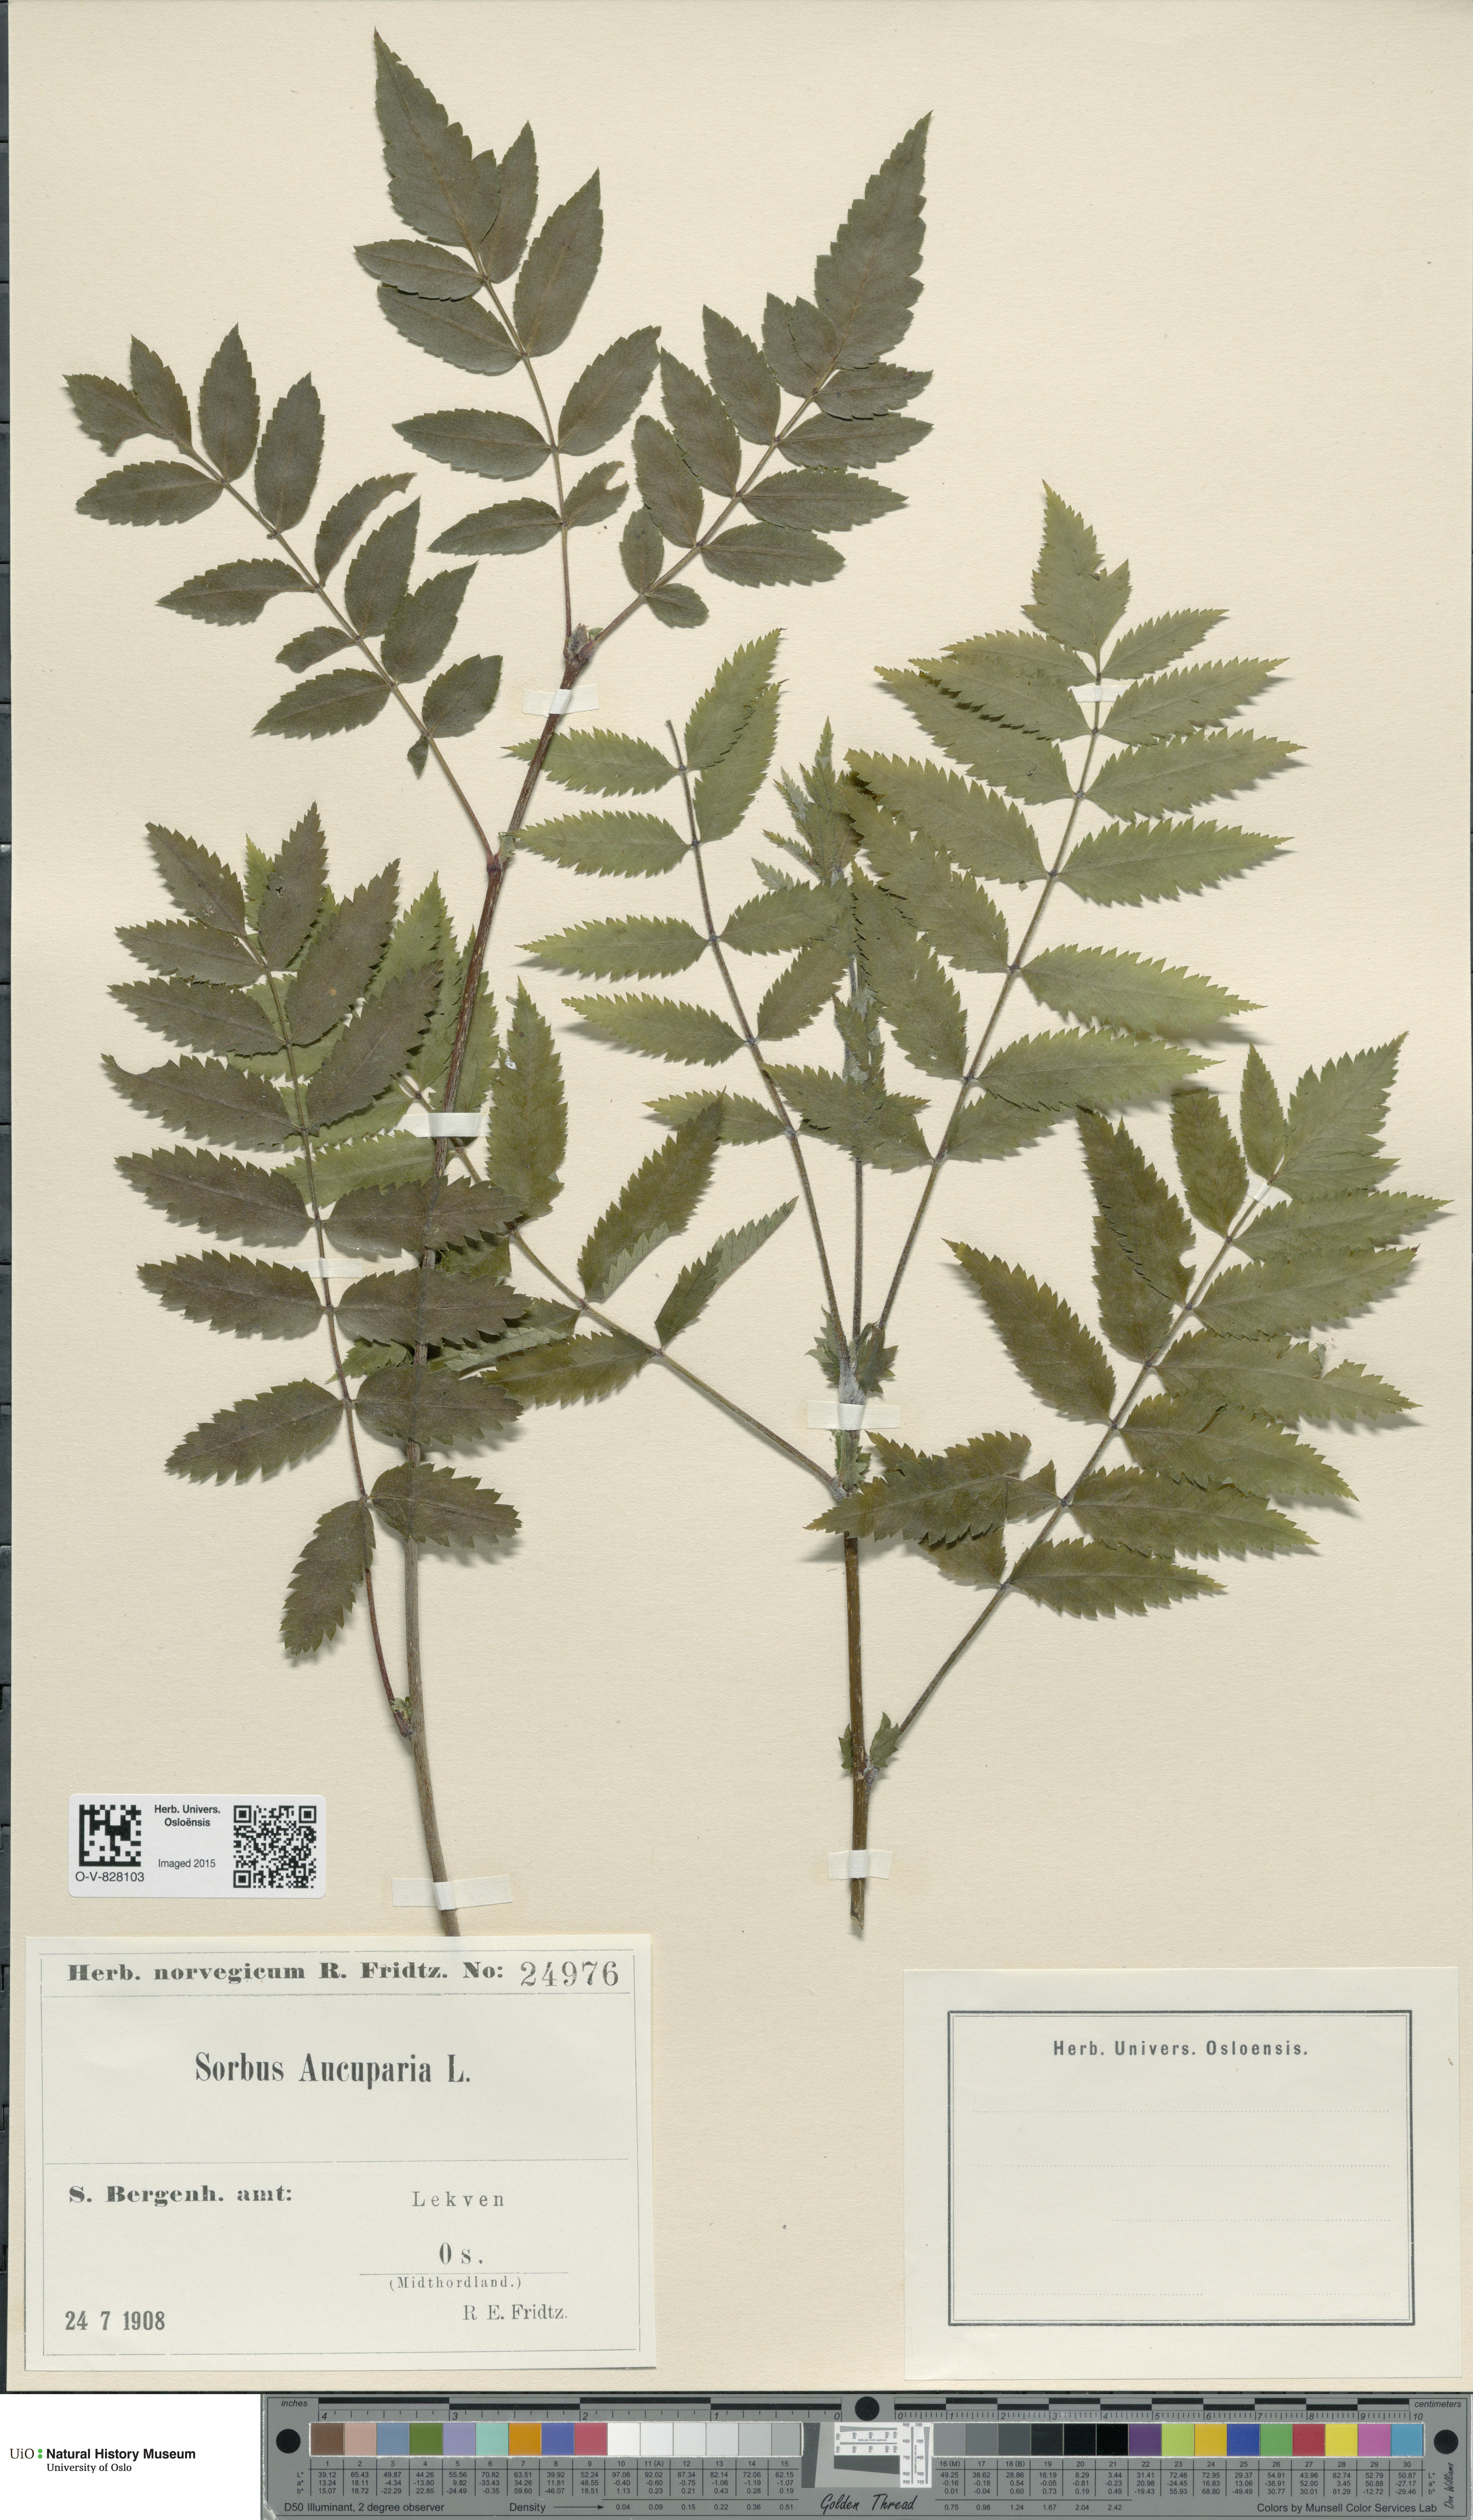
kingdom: Plantae
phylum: Tracheophyta
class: Magnoliopsida
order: Rosales
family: Rosaceae
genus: Sorbus
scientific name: Sorbus aucuparia
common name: Rowan
